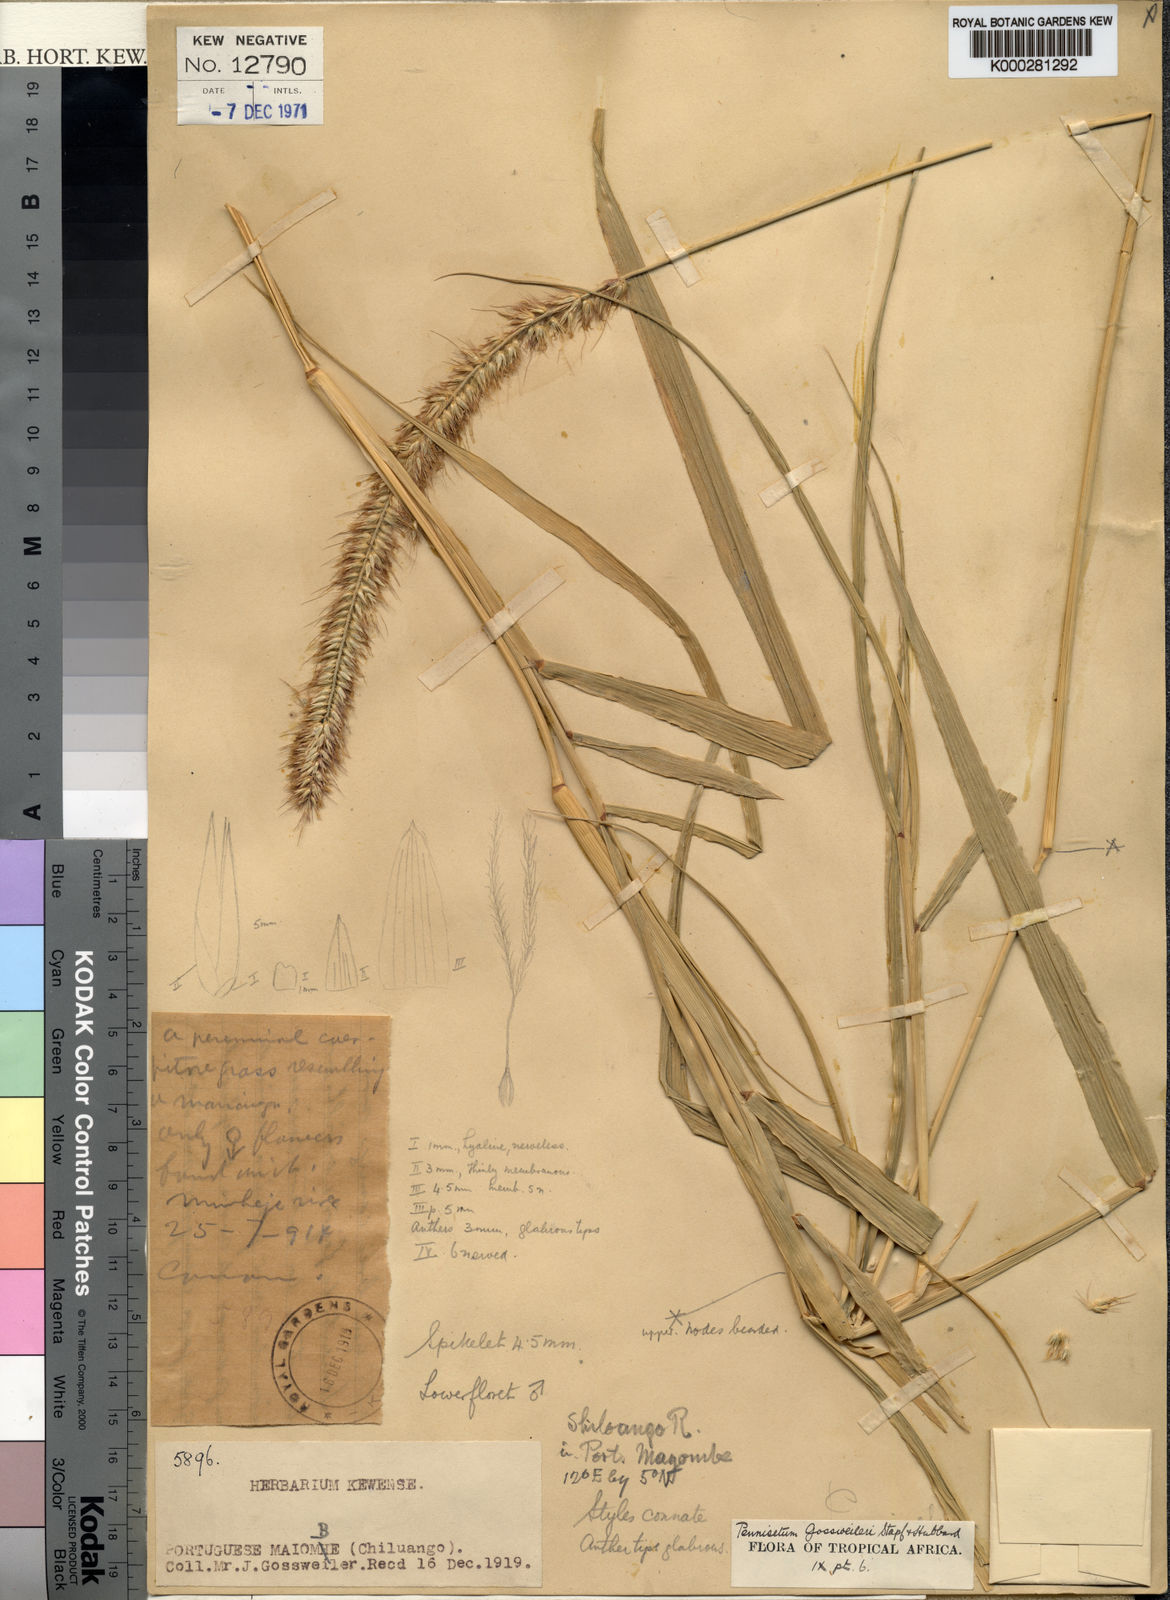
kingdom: Plantae
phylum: Tracheophyta
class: Liliopsida
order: Poales
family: Poaceae
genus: Cenchrus
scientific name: Cenchrus purpureus
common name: Elephant grass
